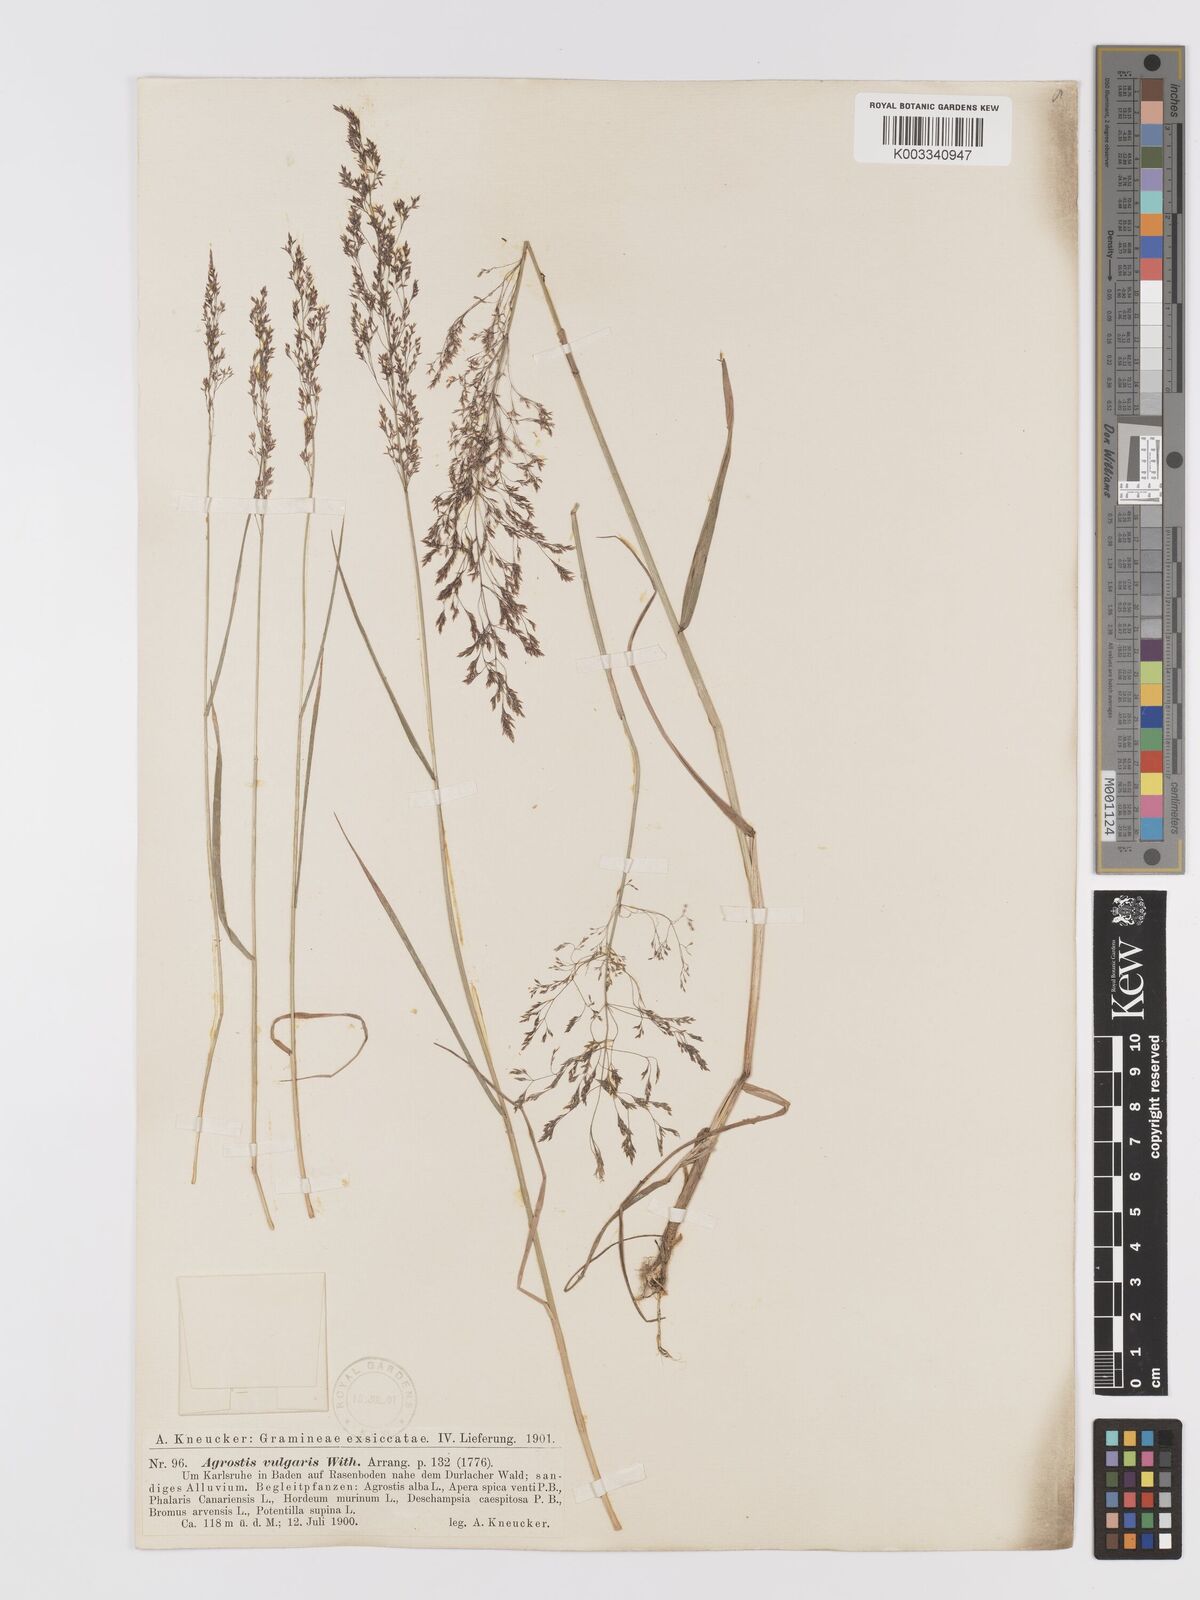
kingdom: Plantae
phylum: Tracheophyta
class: Liliopsida
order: Poales
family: Poaceae
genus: Agrostis
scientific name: Agrostis capillaris
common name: Colonial bentgrass
